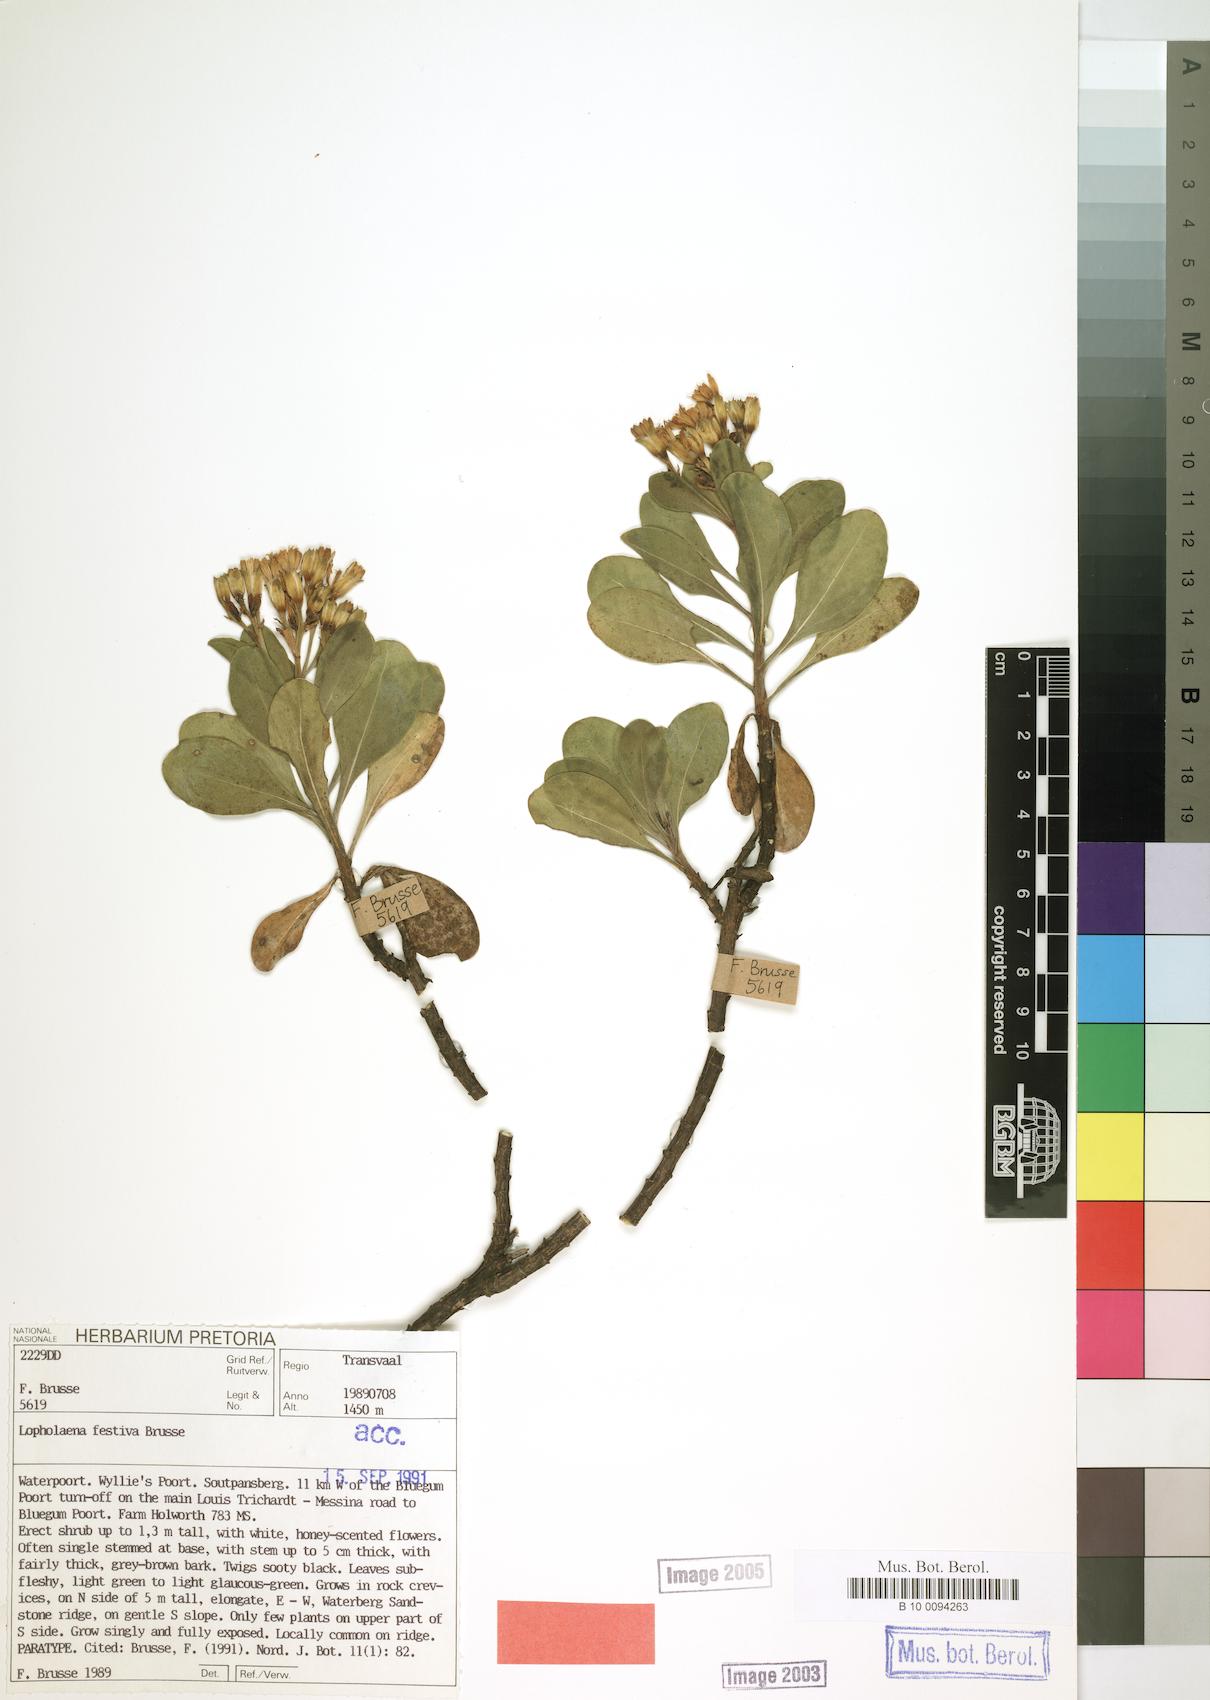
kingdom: Plantae
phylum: Tracheophyta
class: Magnoliopsida
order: Asterales
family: Asteraceae
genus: Lopholaena
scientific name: Lopholaena festiva
